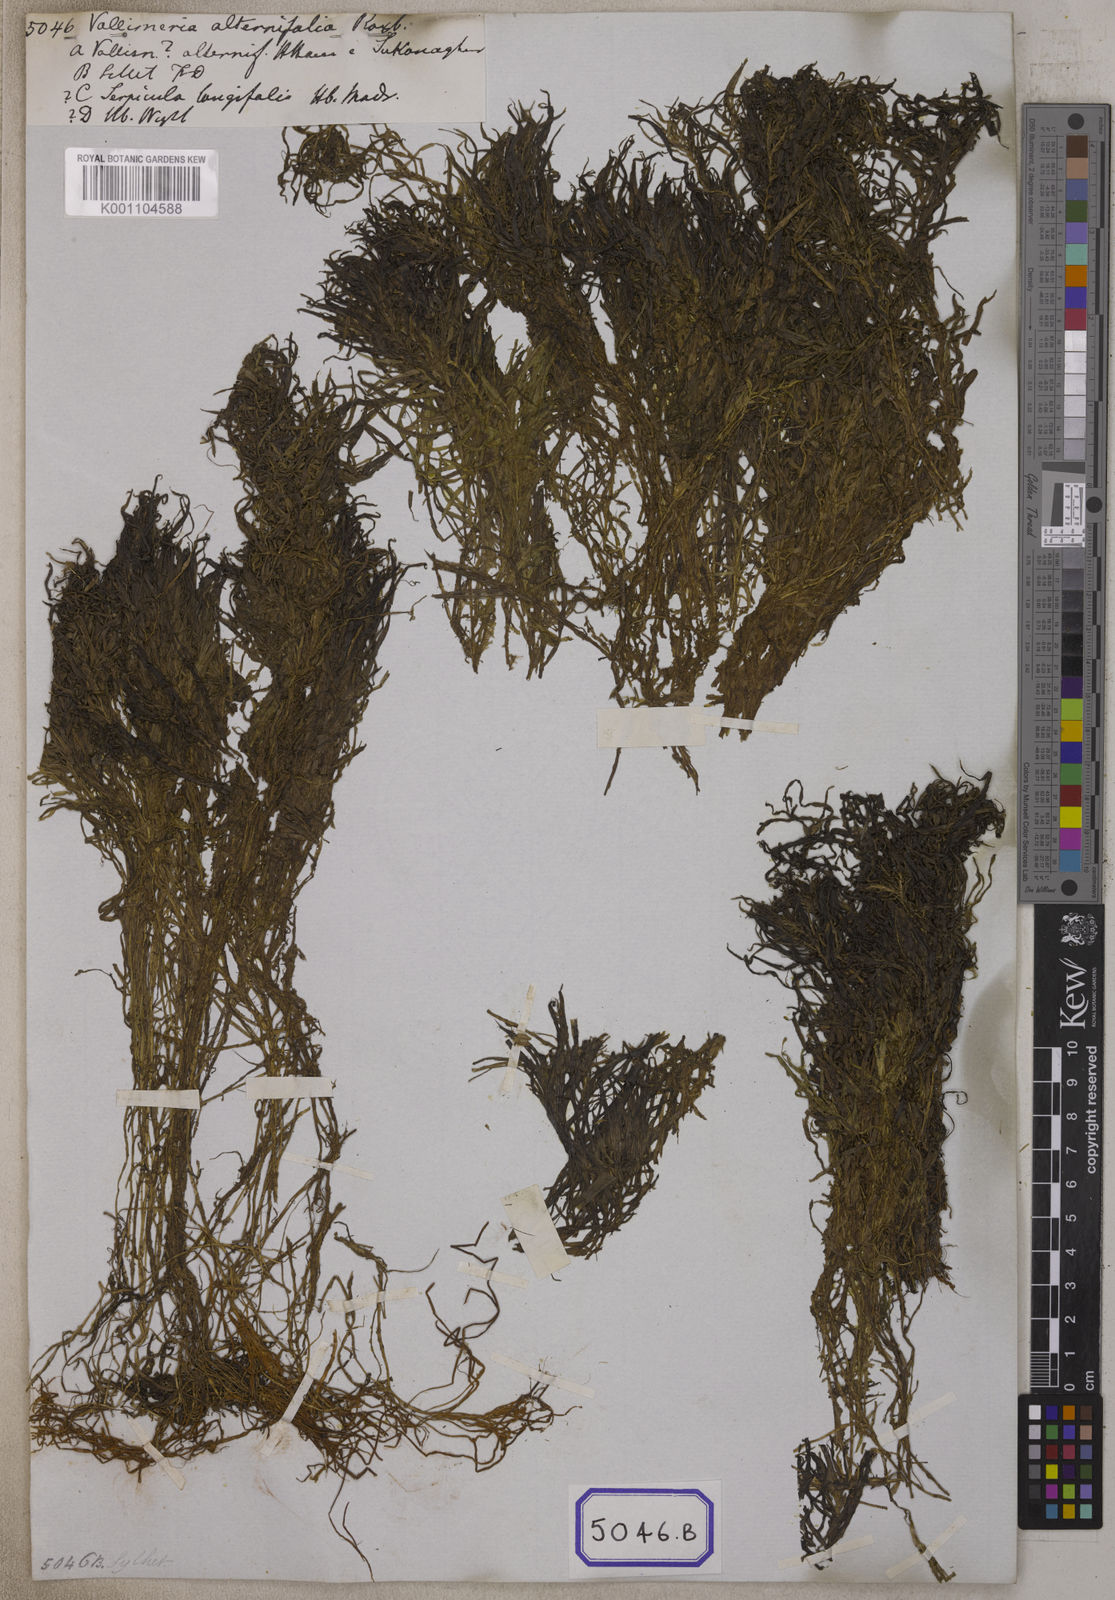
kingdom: Plantae
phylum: Tracheophyta
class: Liliopsida
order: Alismatales
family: Hydrocharitaceae
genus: Vallisneria
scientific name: Vallisneria
